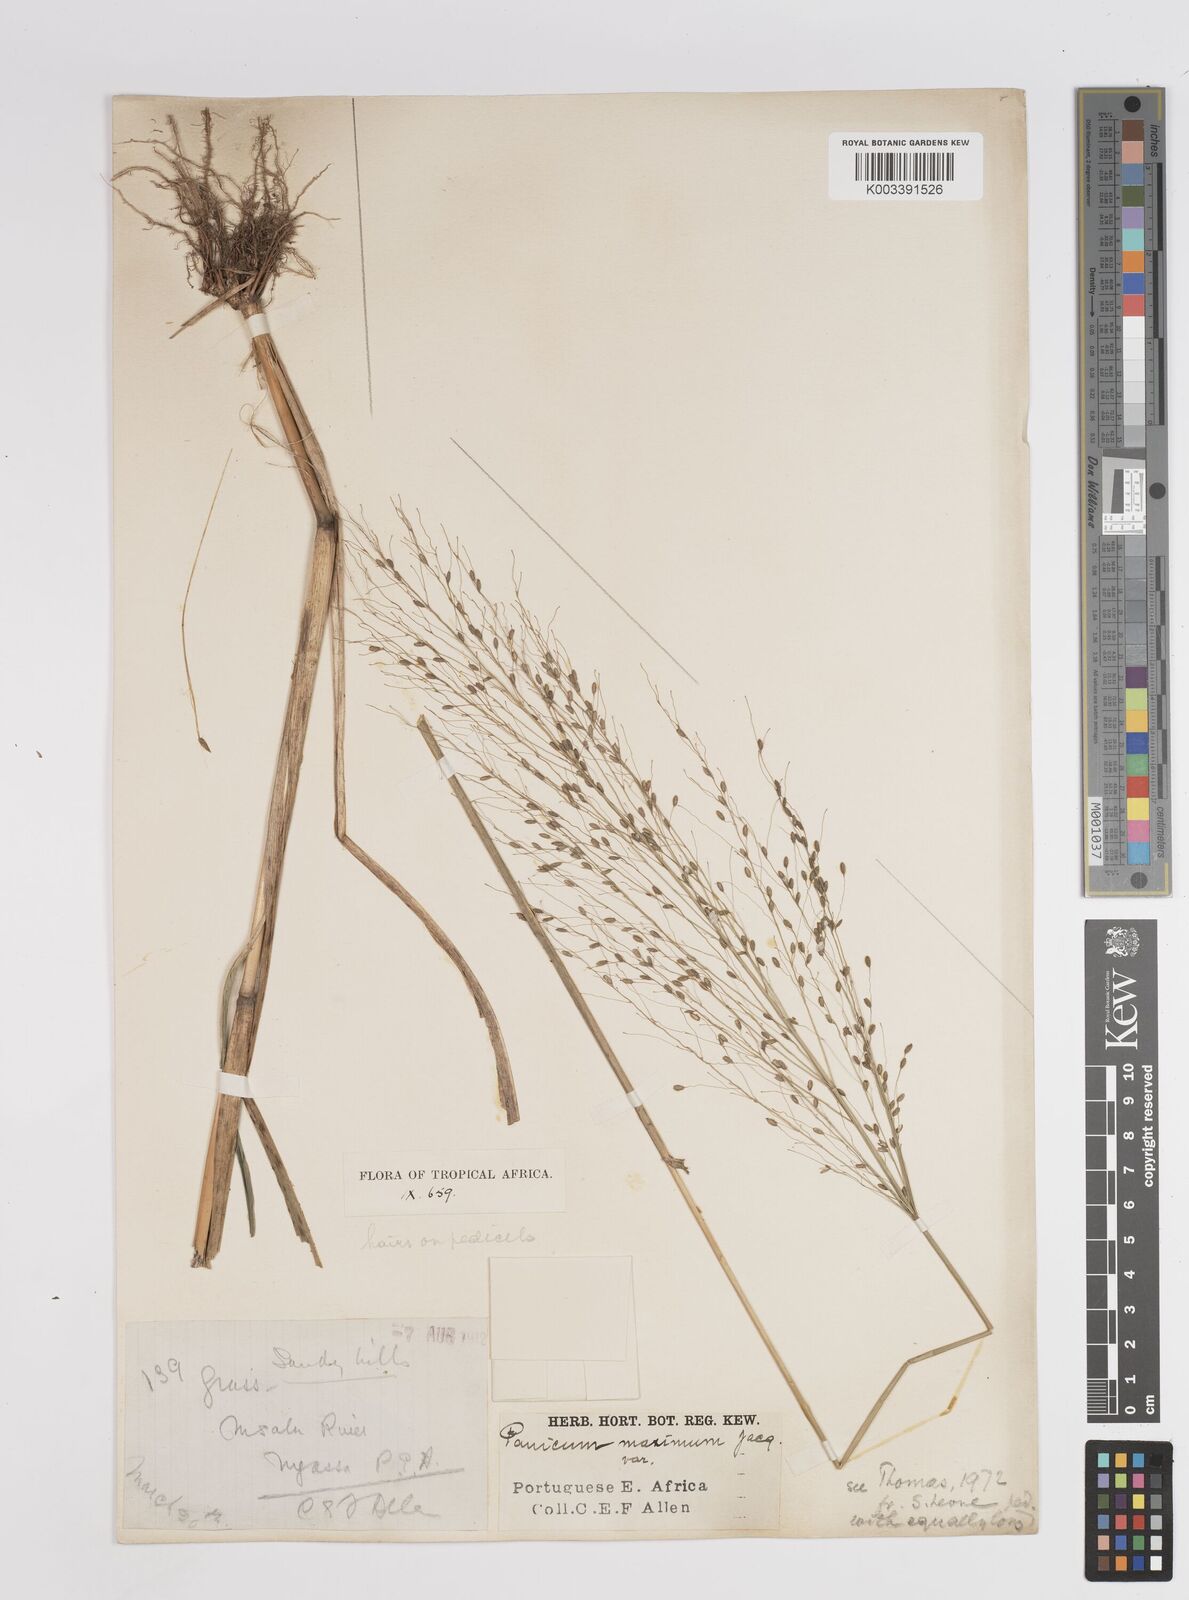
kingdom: Plantae
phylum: Tracheophyta
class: Liliopsida
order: Poales
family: Poaceae
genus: Megathyrsus
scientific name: Megathyrsus maximus
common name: Guineagrass
